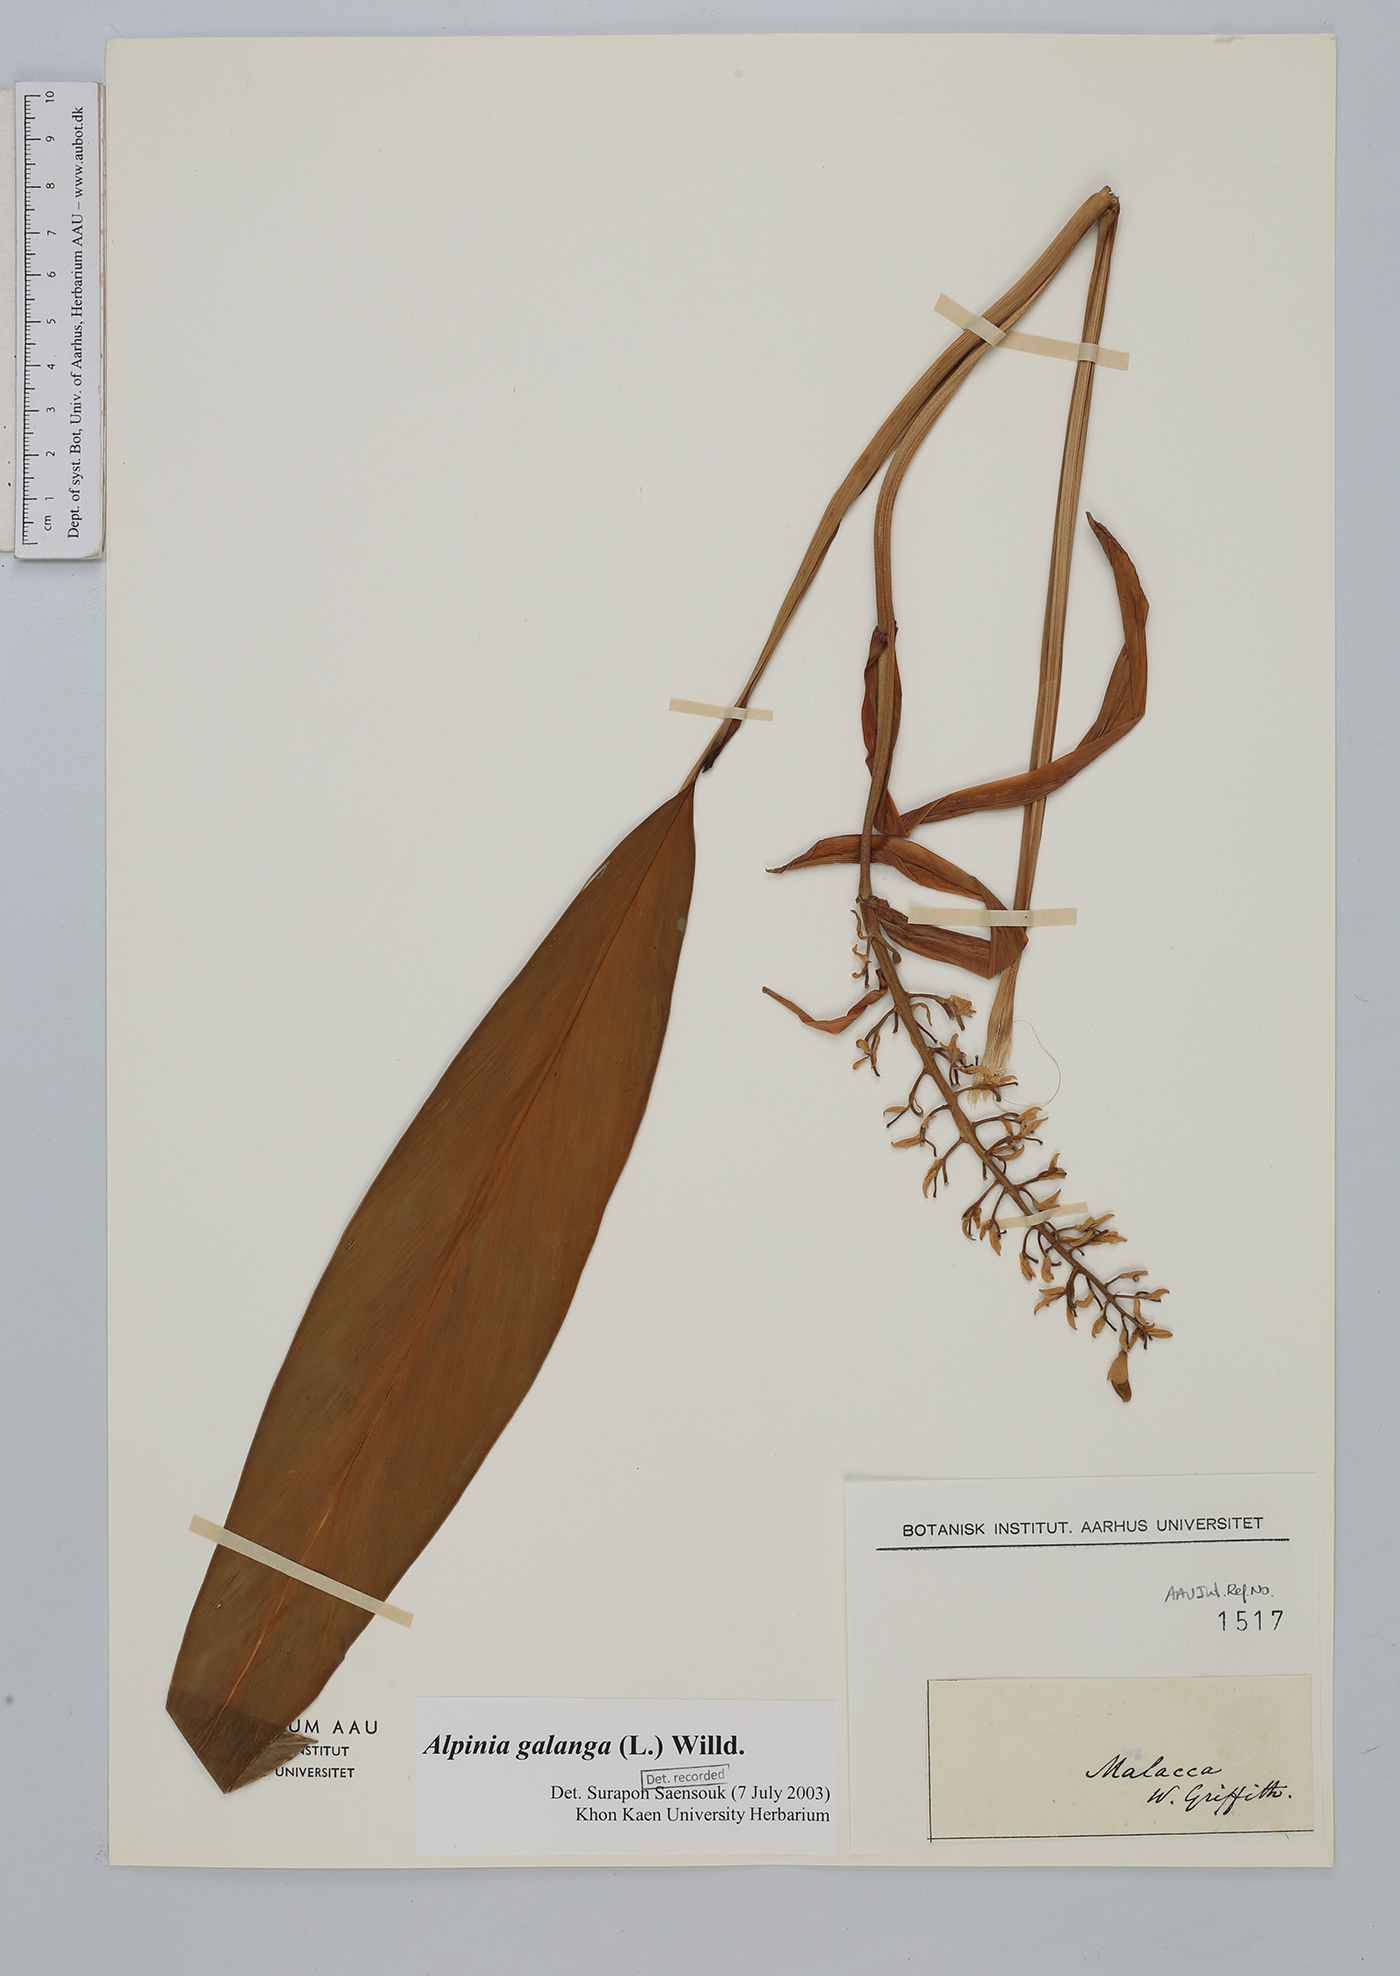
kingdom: Plantae
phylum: Tracheophyta
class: Liliopsida
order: Zingiberales
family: Zingiberaceae
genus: Alpinia
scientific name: Alpinia galanga
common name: Siamese-ginger
